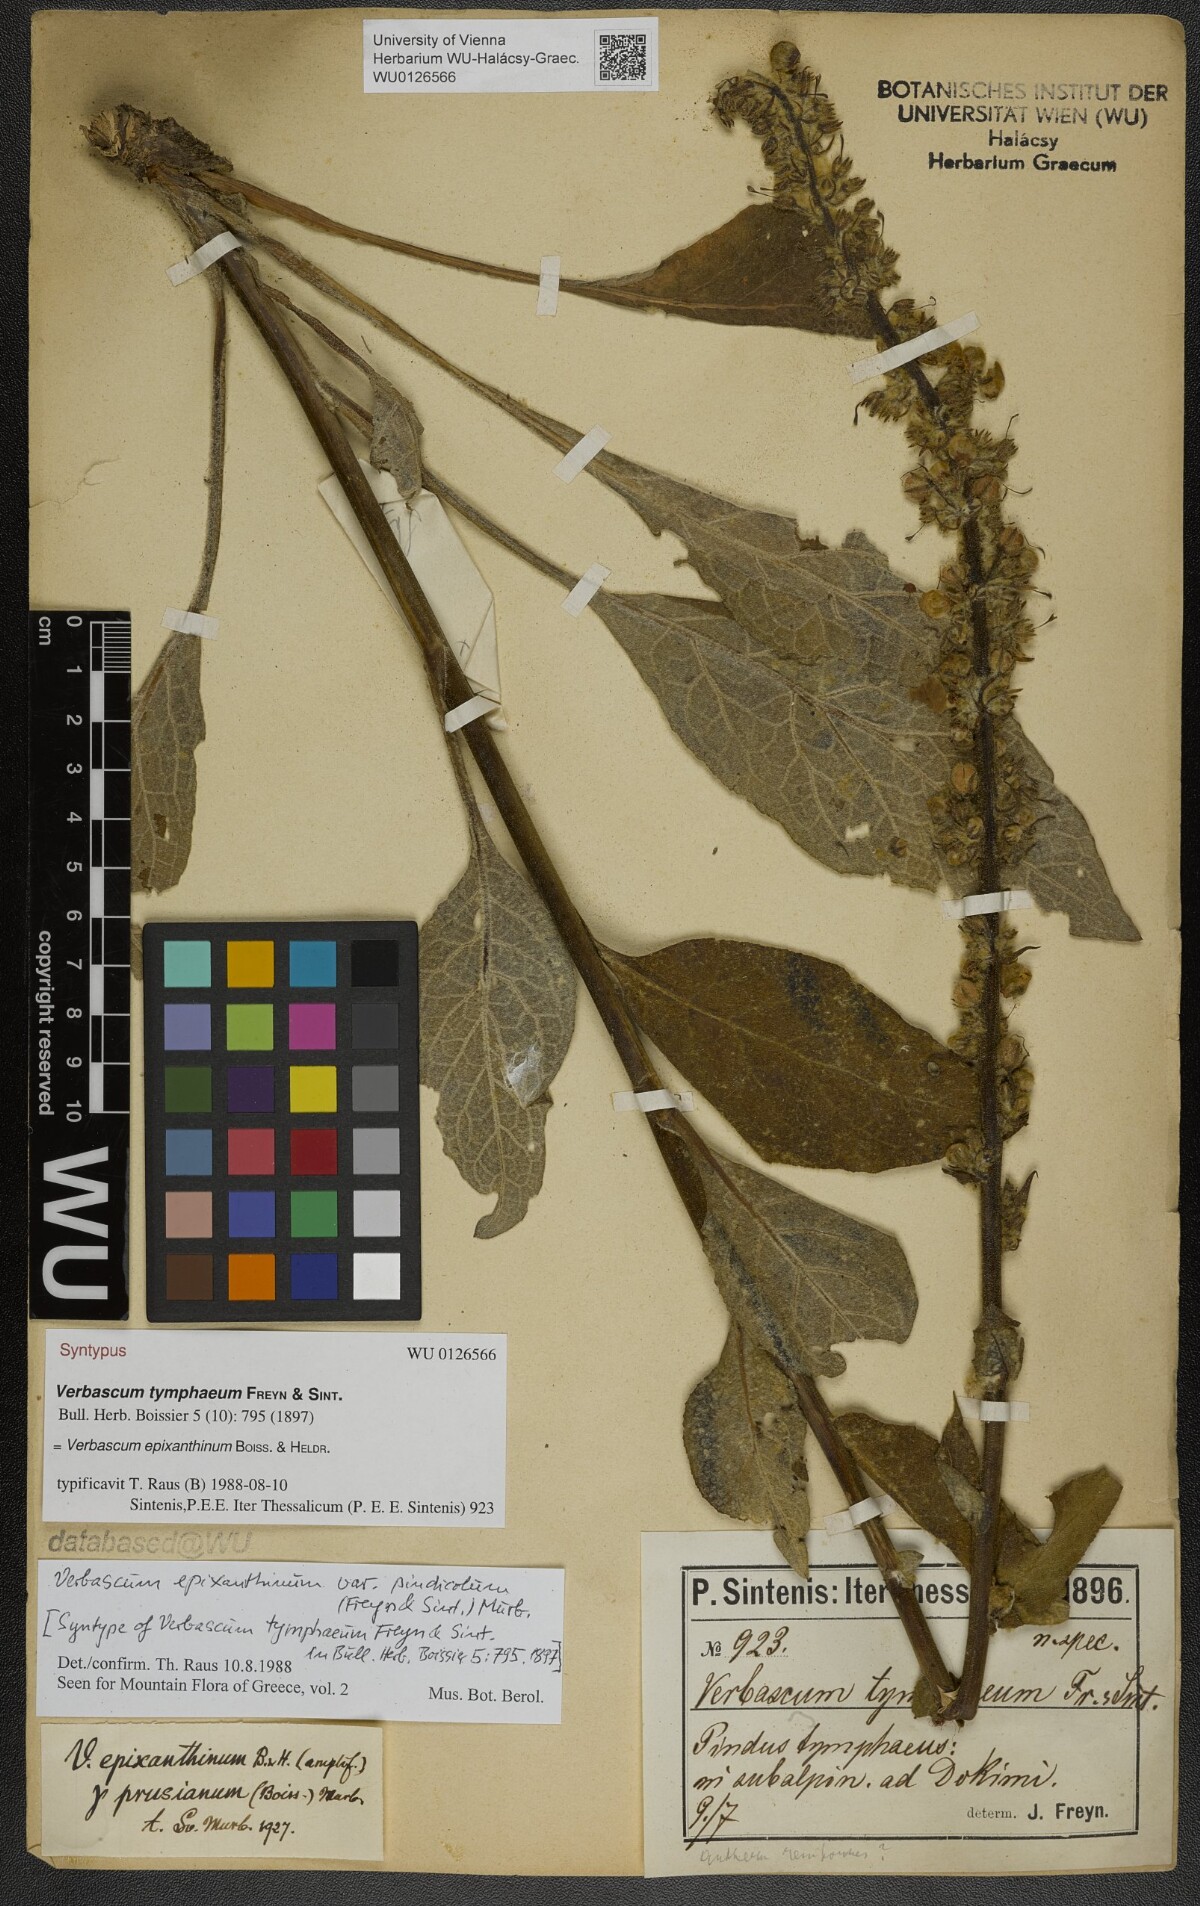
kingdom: Plantae
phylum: Tracheophyta
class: Magnoliopsida
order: Lamiales
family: Scrophulariaceae
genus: Verbascum
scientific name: Verbascum epixanthinum
